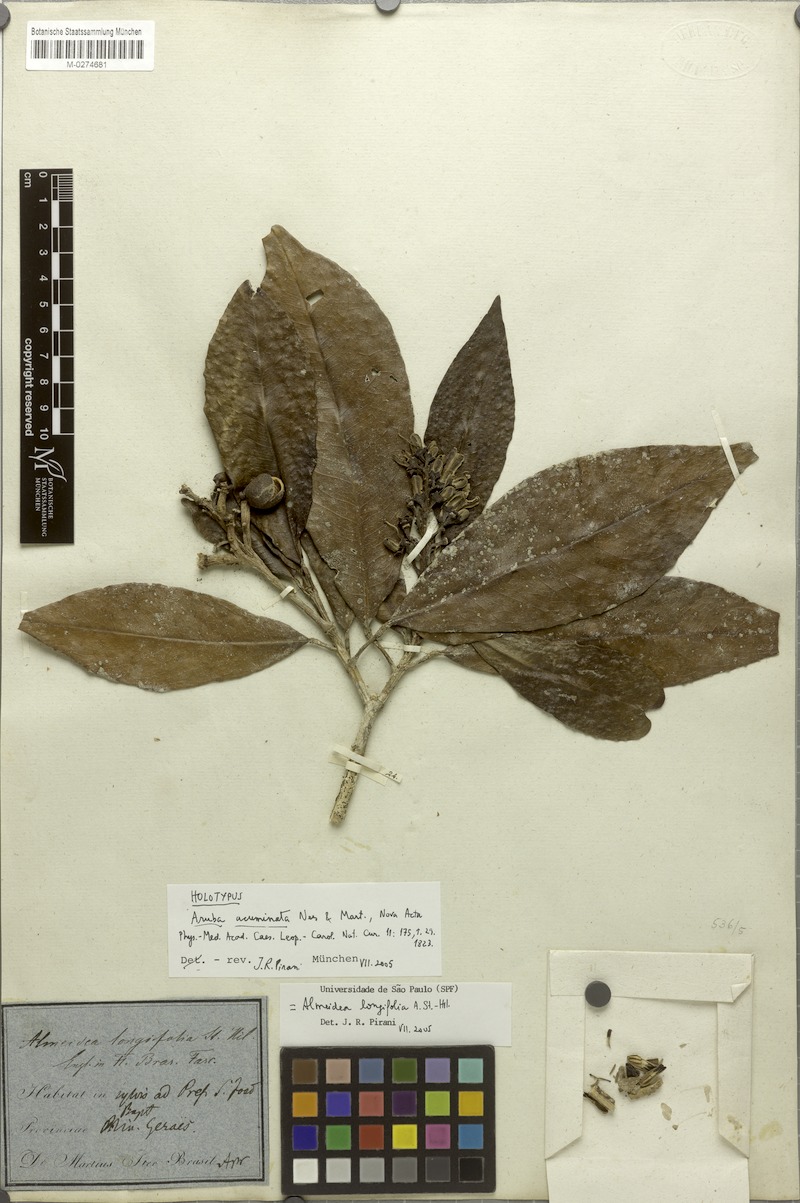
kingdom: Plantae
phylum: Tracheophyta
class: Magnoliopsida
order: Sapindales
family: Rutaceae
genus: Conchocarpus
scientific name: Conchocarpus ruber
